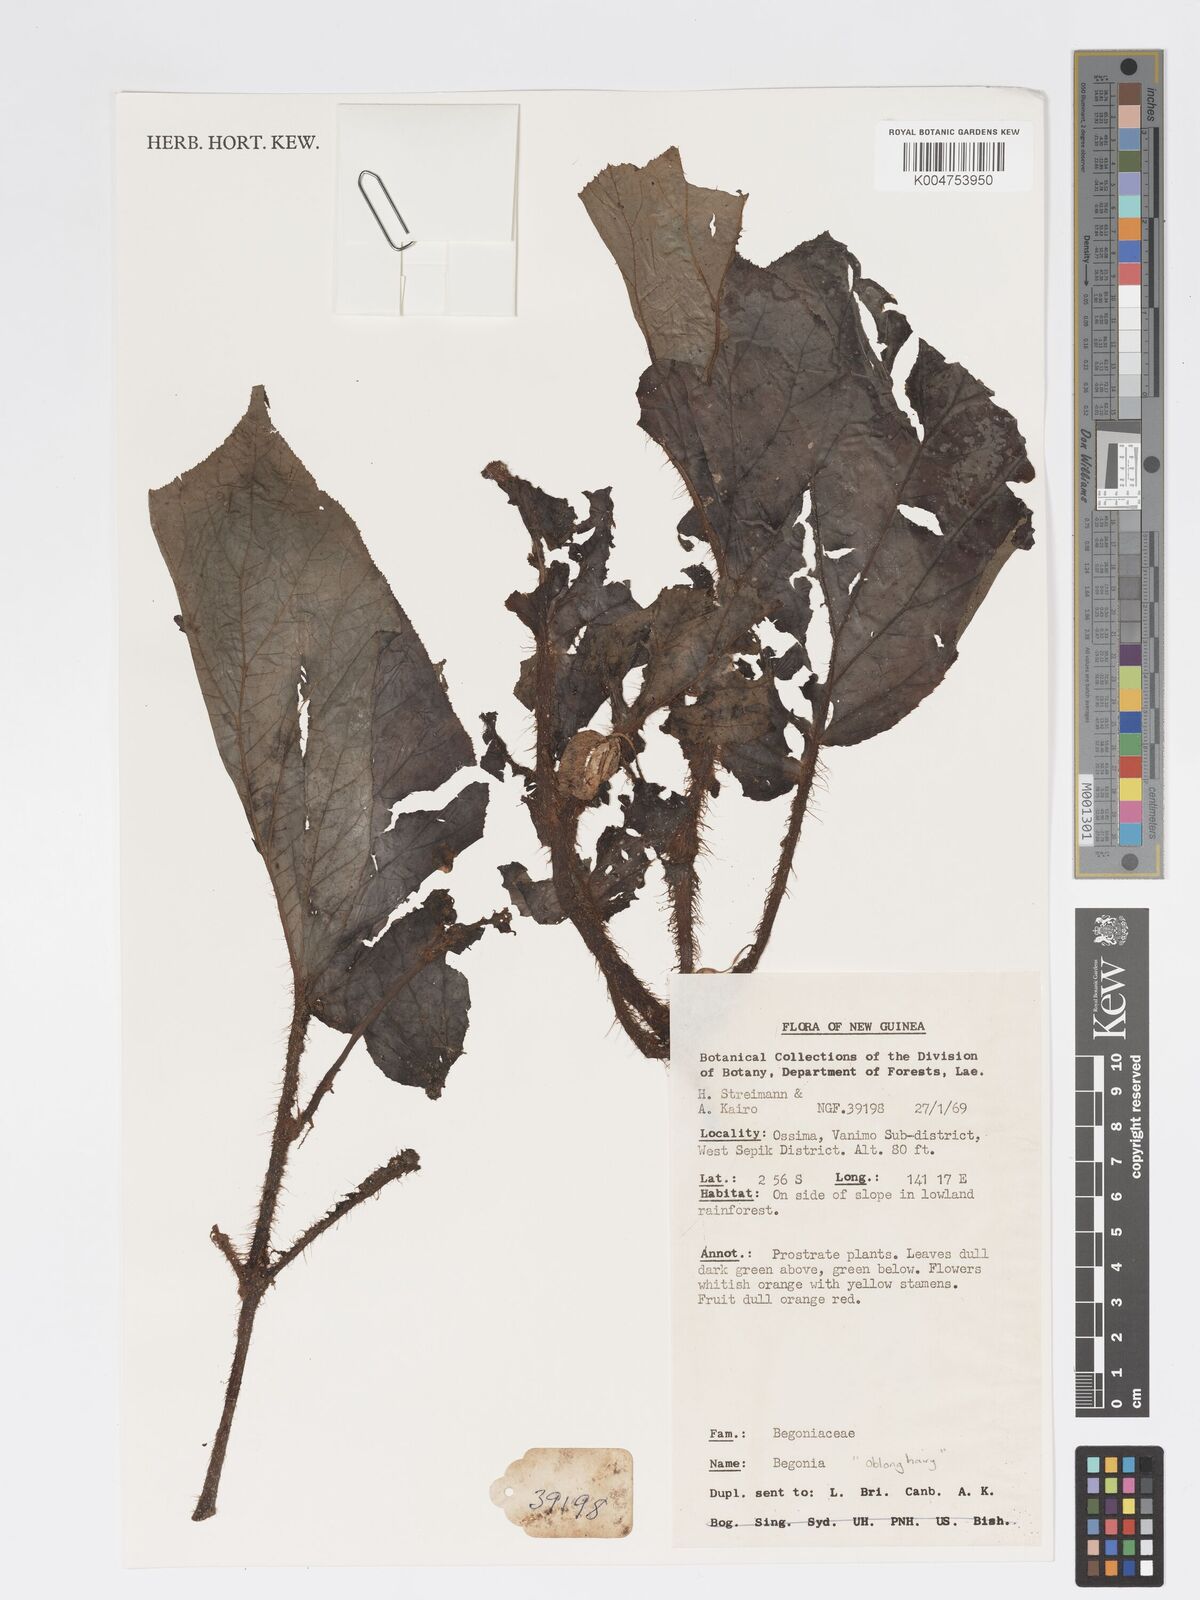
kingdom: Plantae
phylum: Tracheophyta
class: Magnoliopsida
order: Cucurbitales
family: Begoniaceae
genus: Begonia
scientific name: Begonia
